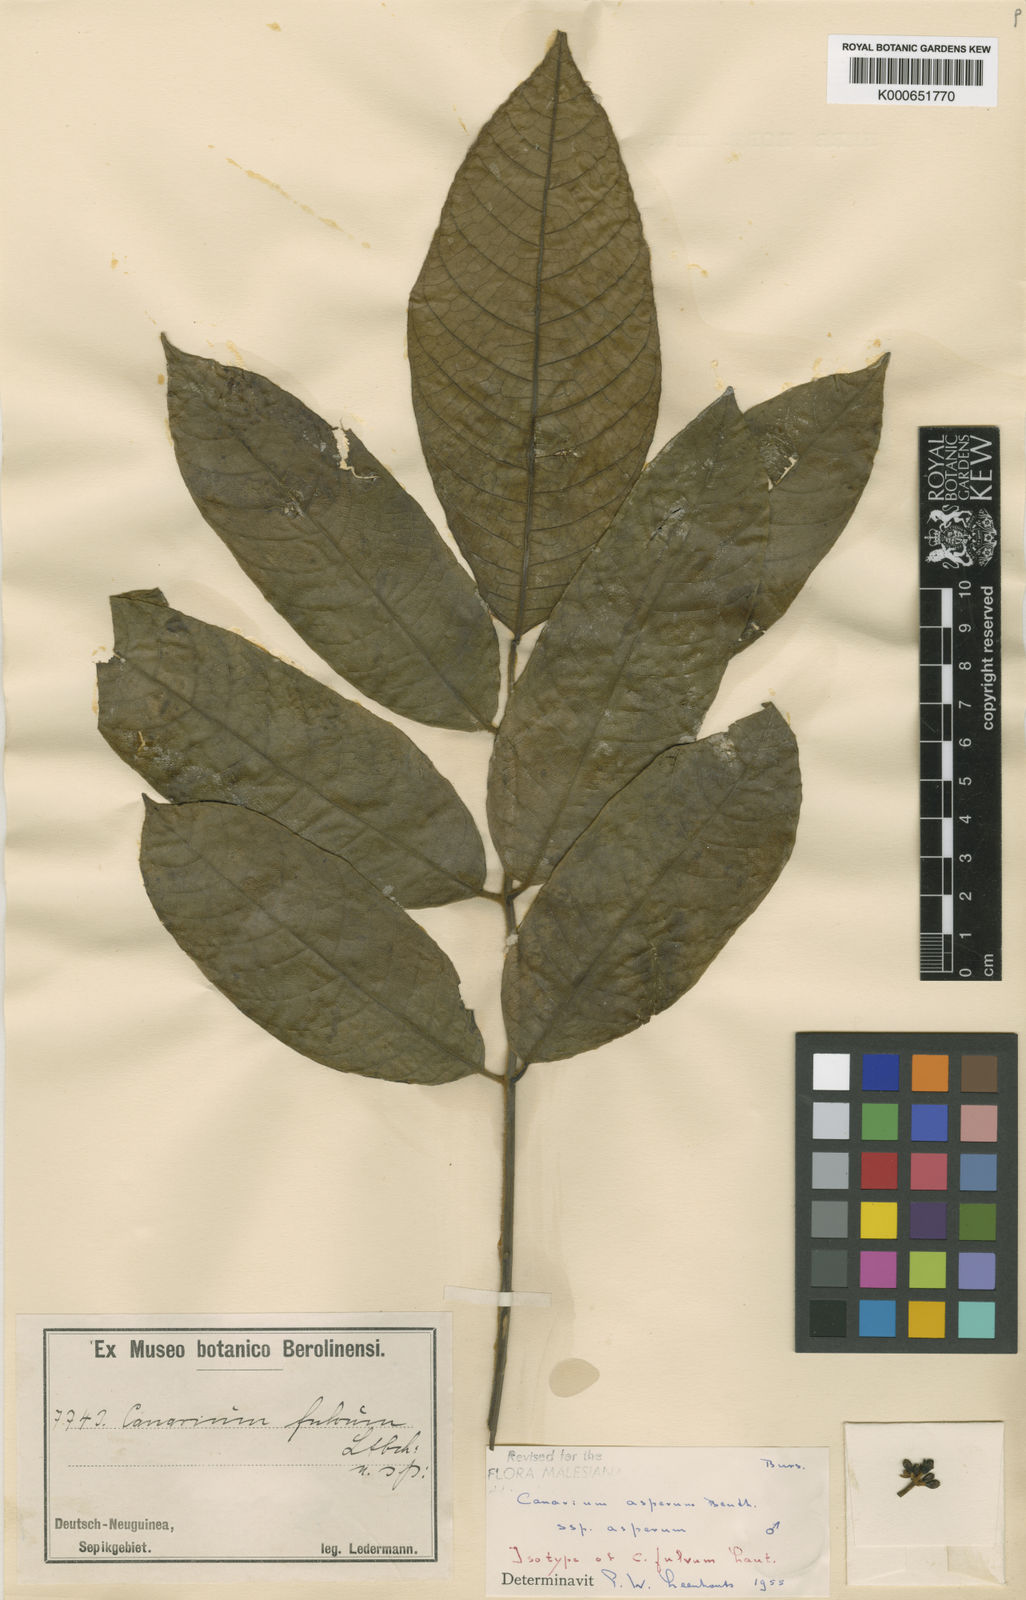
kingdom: Plantae
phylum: Tracheophyta
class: Magnoliopsida
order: Sapindales
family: Burseraceae
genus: Canarium
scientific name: Canarium asperum
